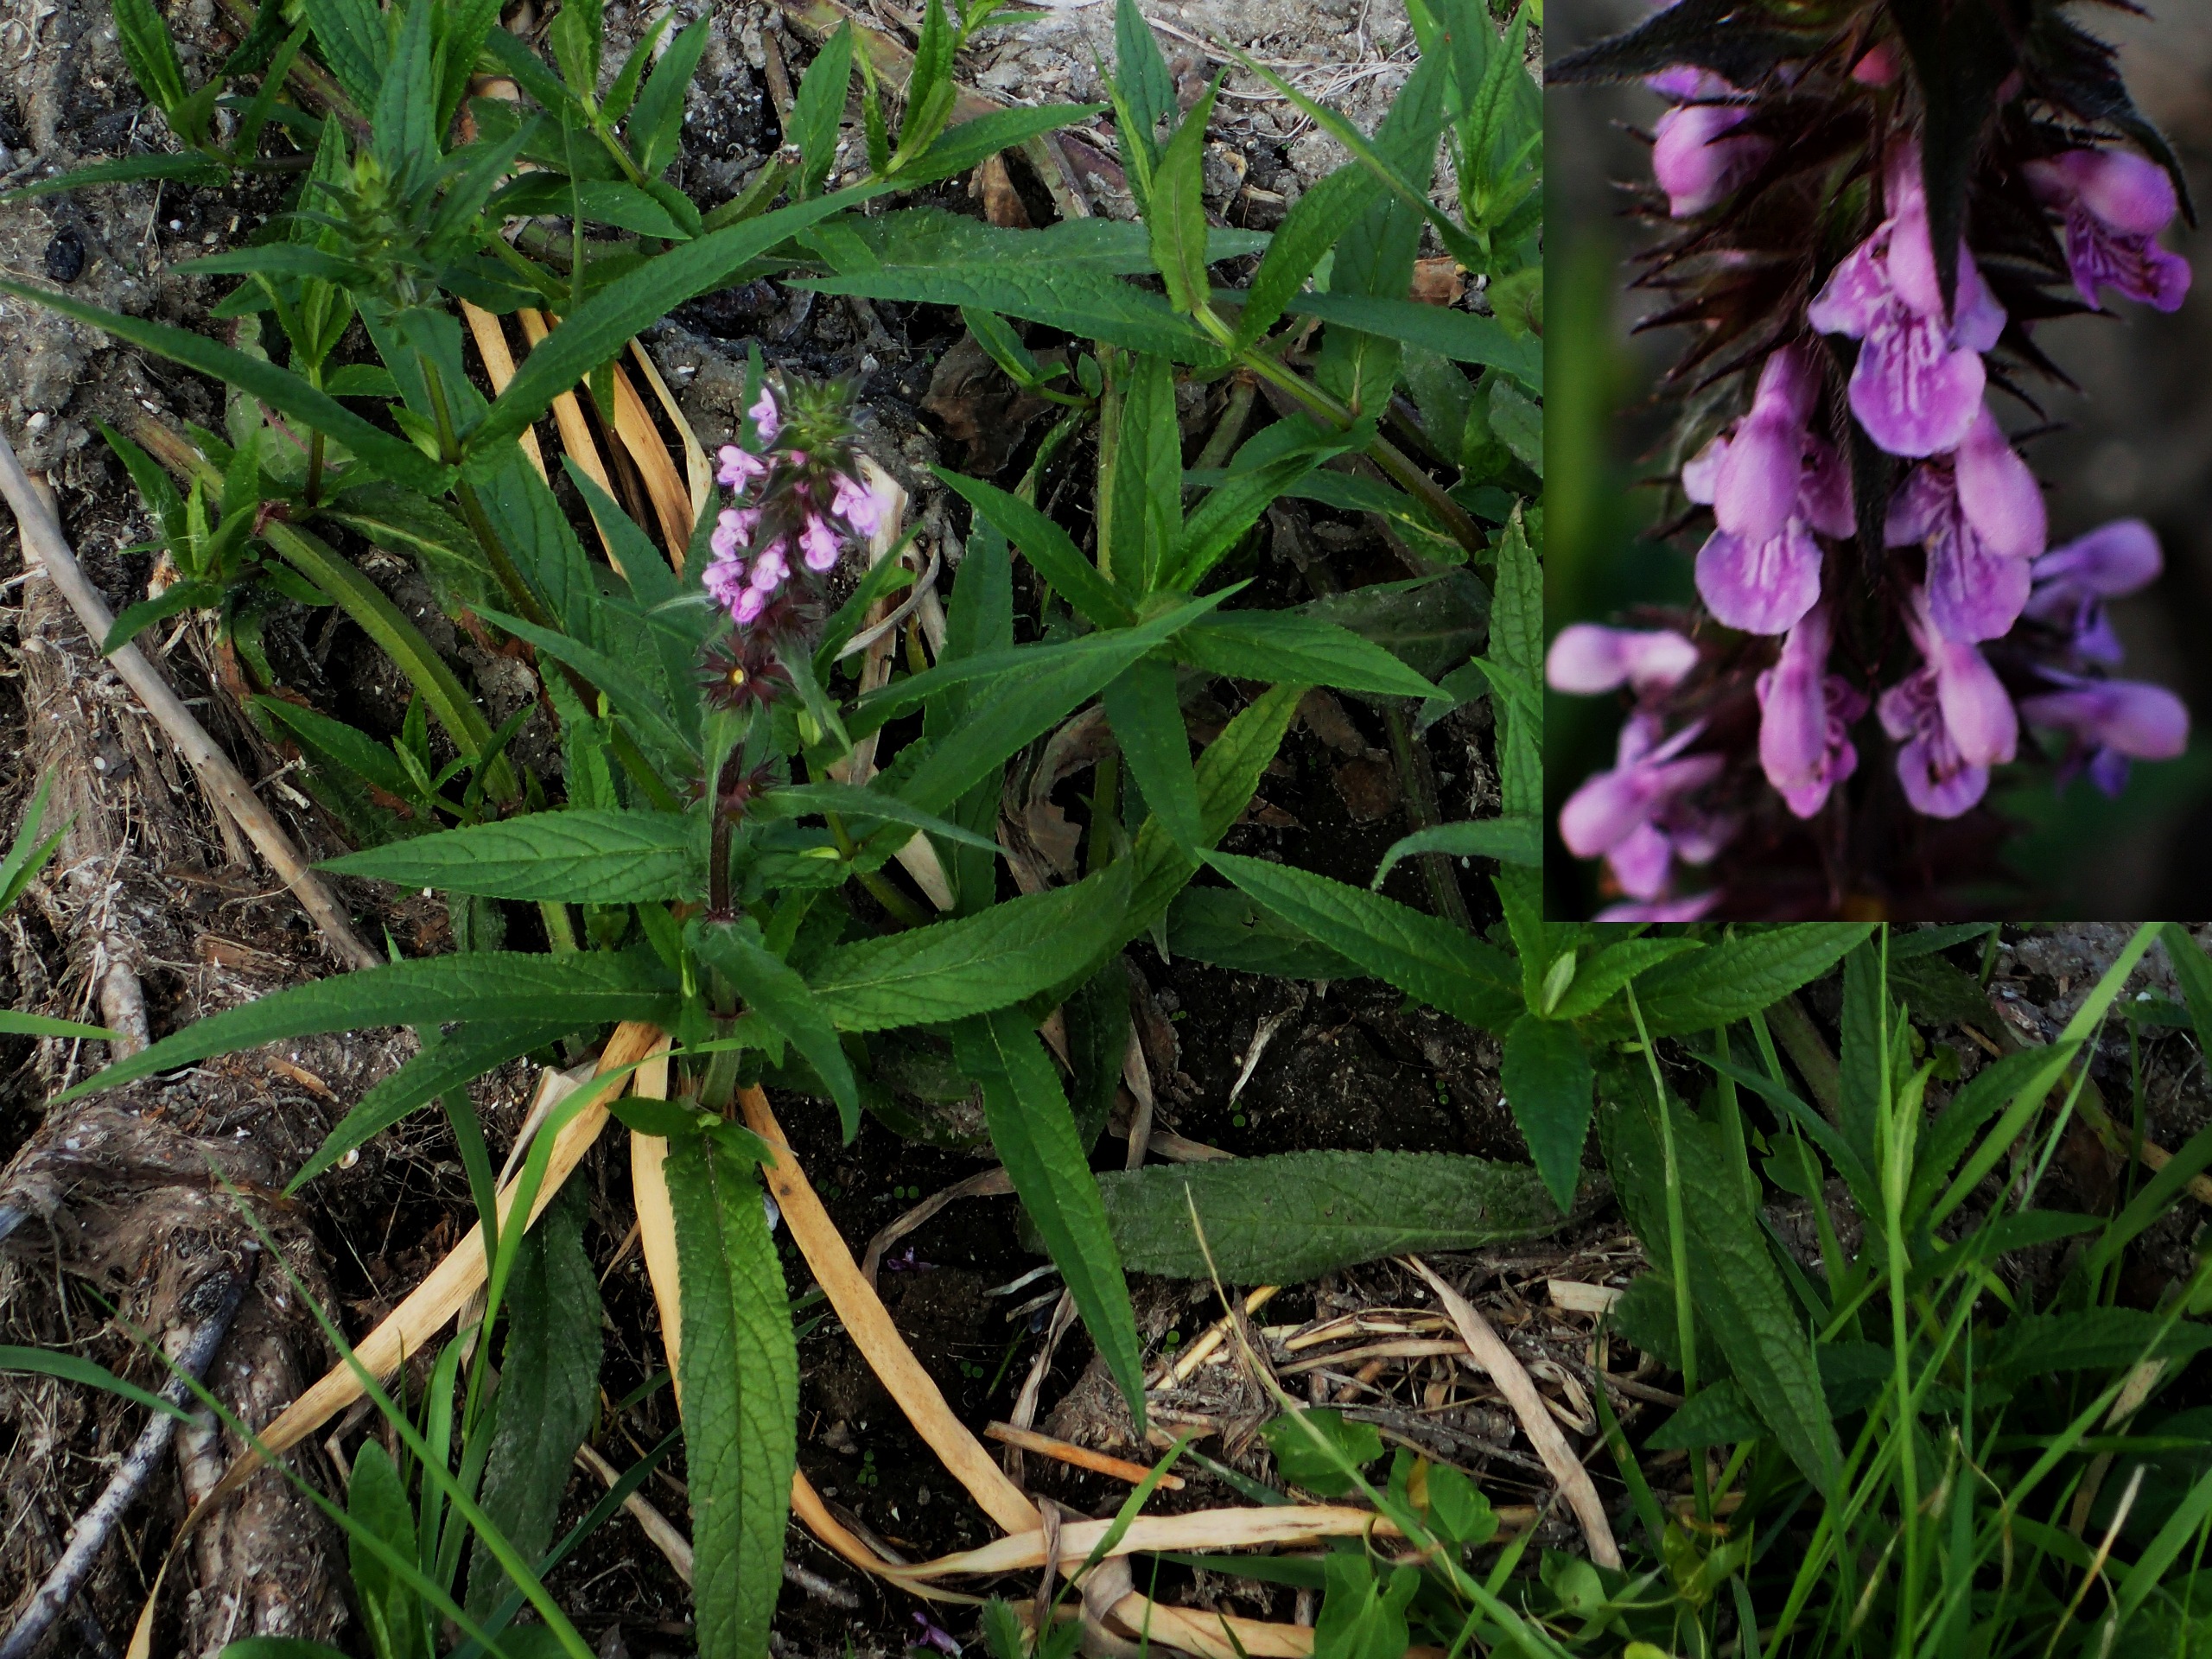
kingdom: Plantae
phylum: Tracheophyta
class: Magnoliopsida
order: Lamiales
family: Lamiaceae
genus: Stachys
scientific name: Stachys palustris
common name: Kær-galtetand
